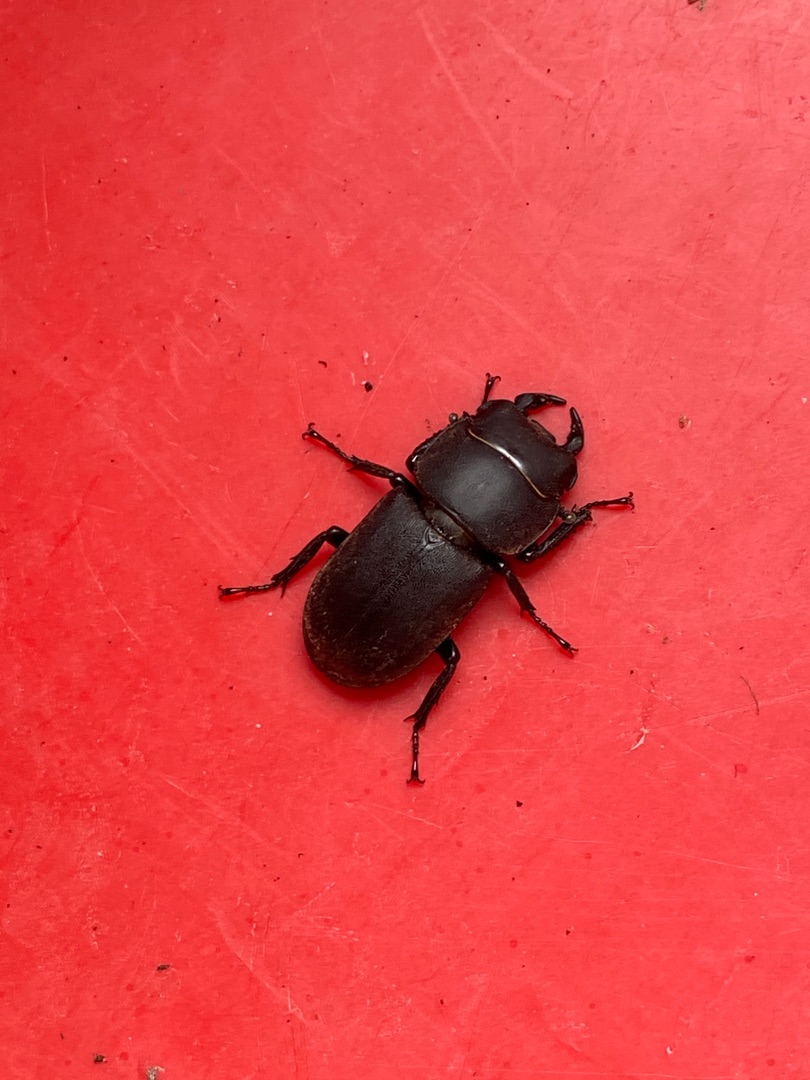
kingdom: Animalia
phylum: Arthropoda
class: Insecta
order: Coleoptera
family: Lucanidae
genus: Dorcus
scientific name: Dorcus parallelipipedus
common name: Bøghjort
